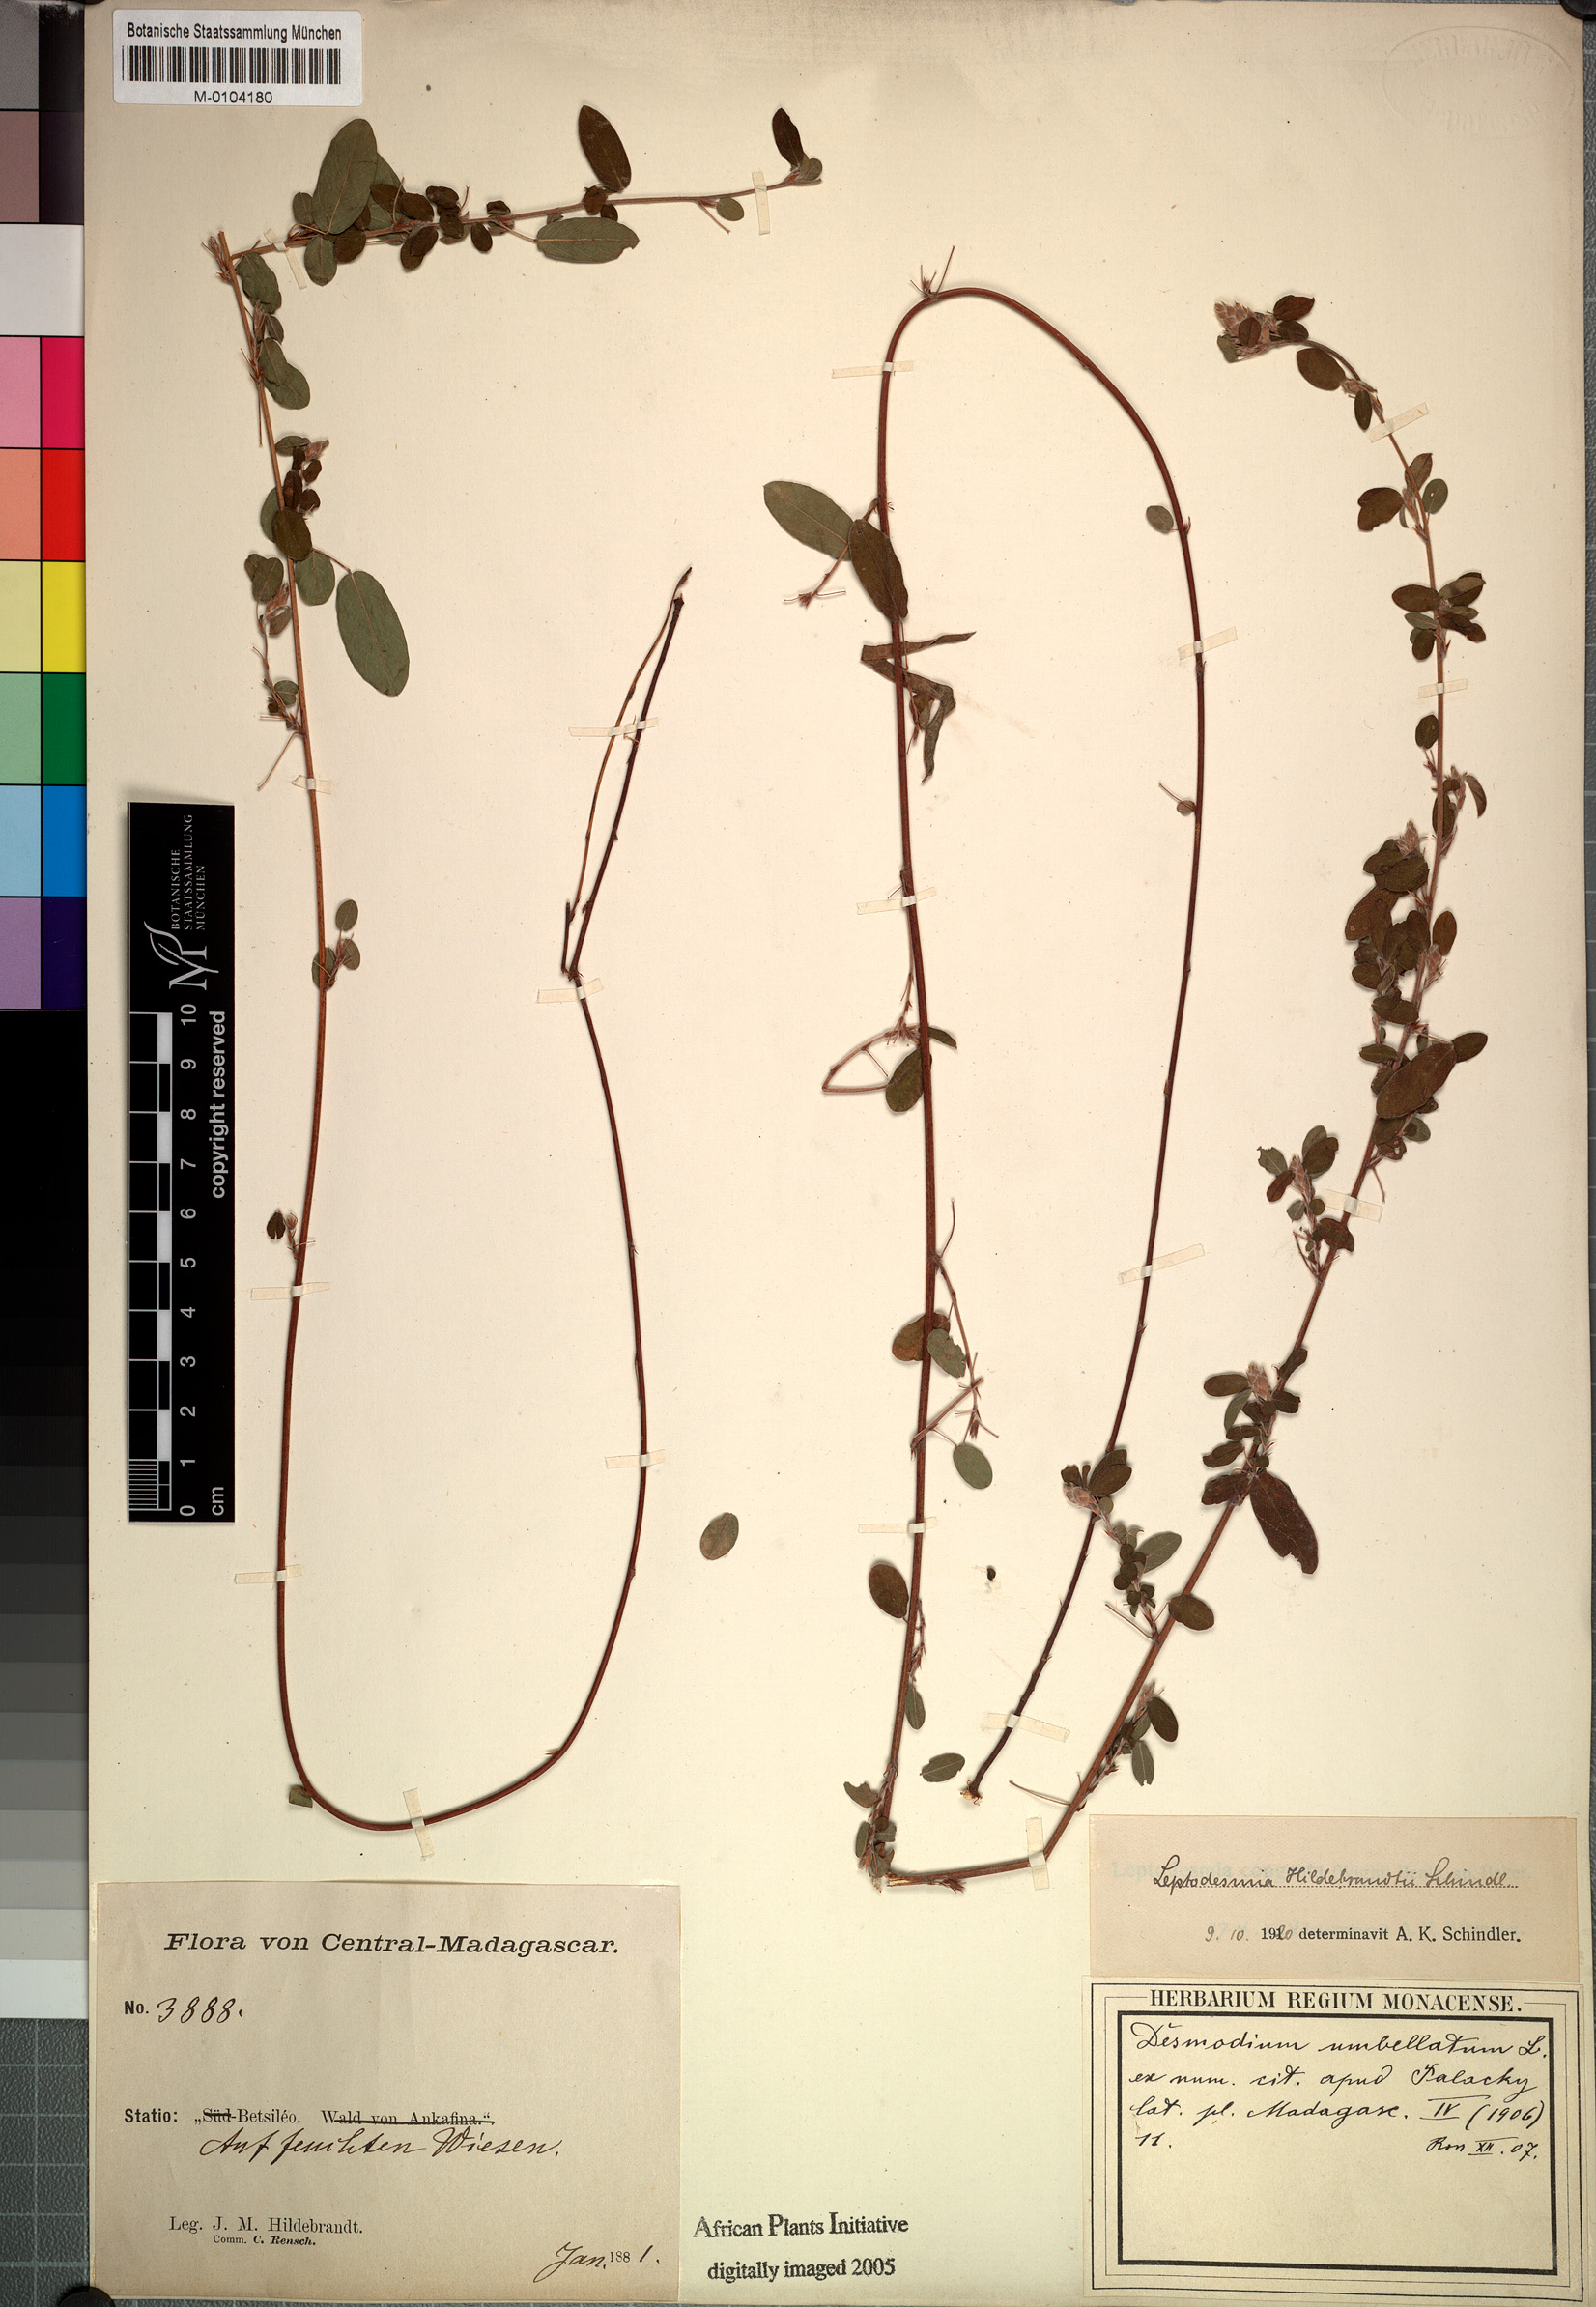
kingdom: Plantae
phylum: Tracheophyta
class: Magnoliopsida
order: Fabales
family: Fabaceae
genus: Leptodesmia
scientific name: Leptodesmia
